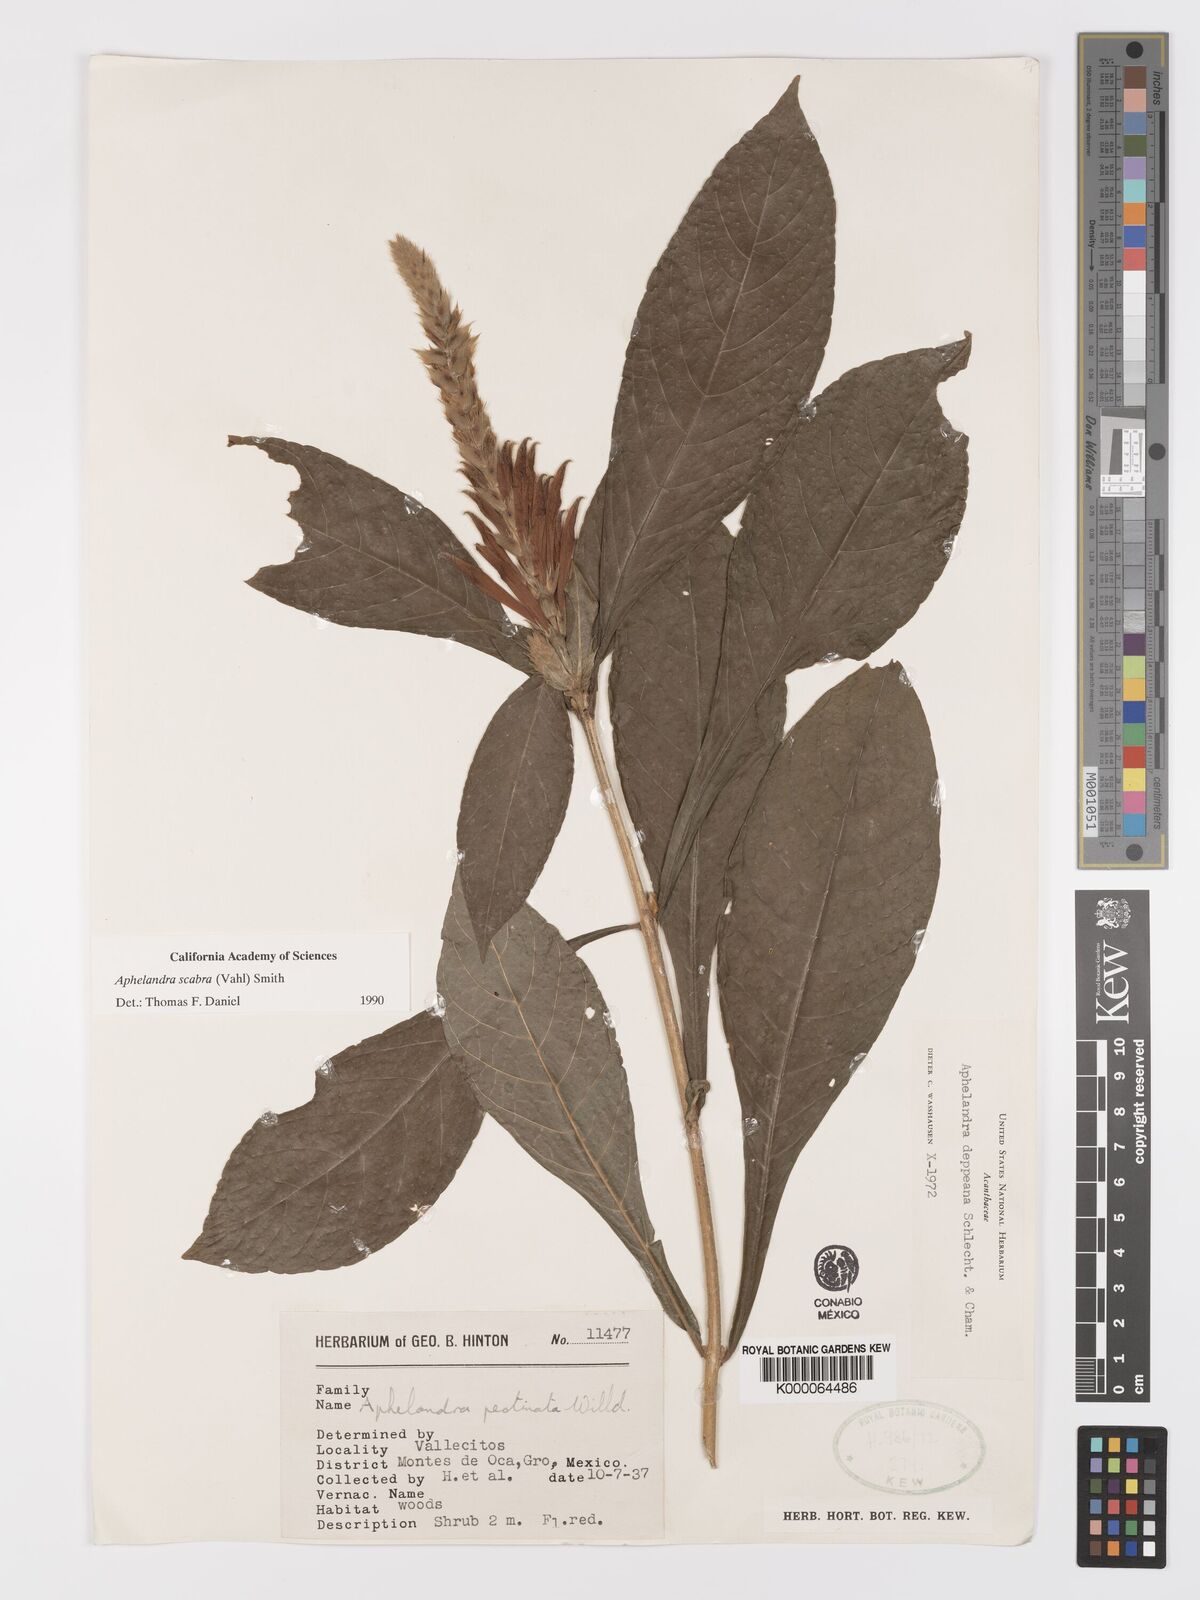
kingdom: Plantae
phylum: Tracheophyta
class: Magnoliopsida
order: Lamiales
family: Acanthaceae
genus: Aphelandra
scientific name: Aphelandra scabra
